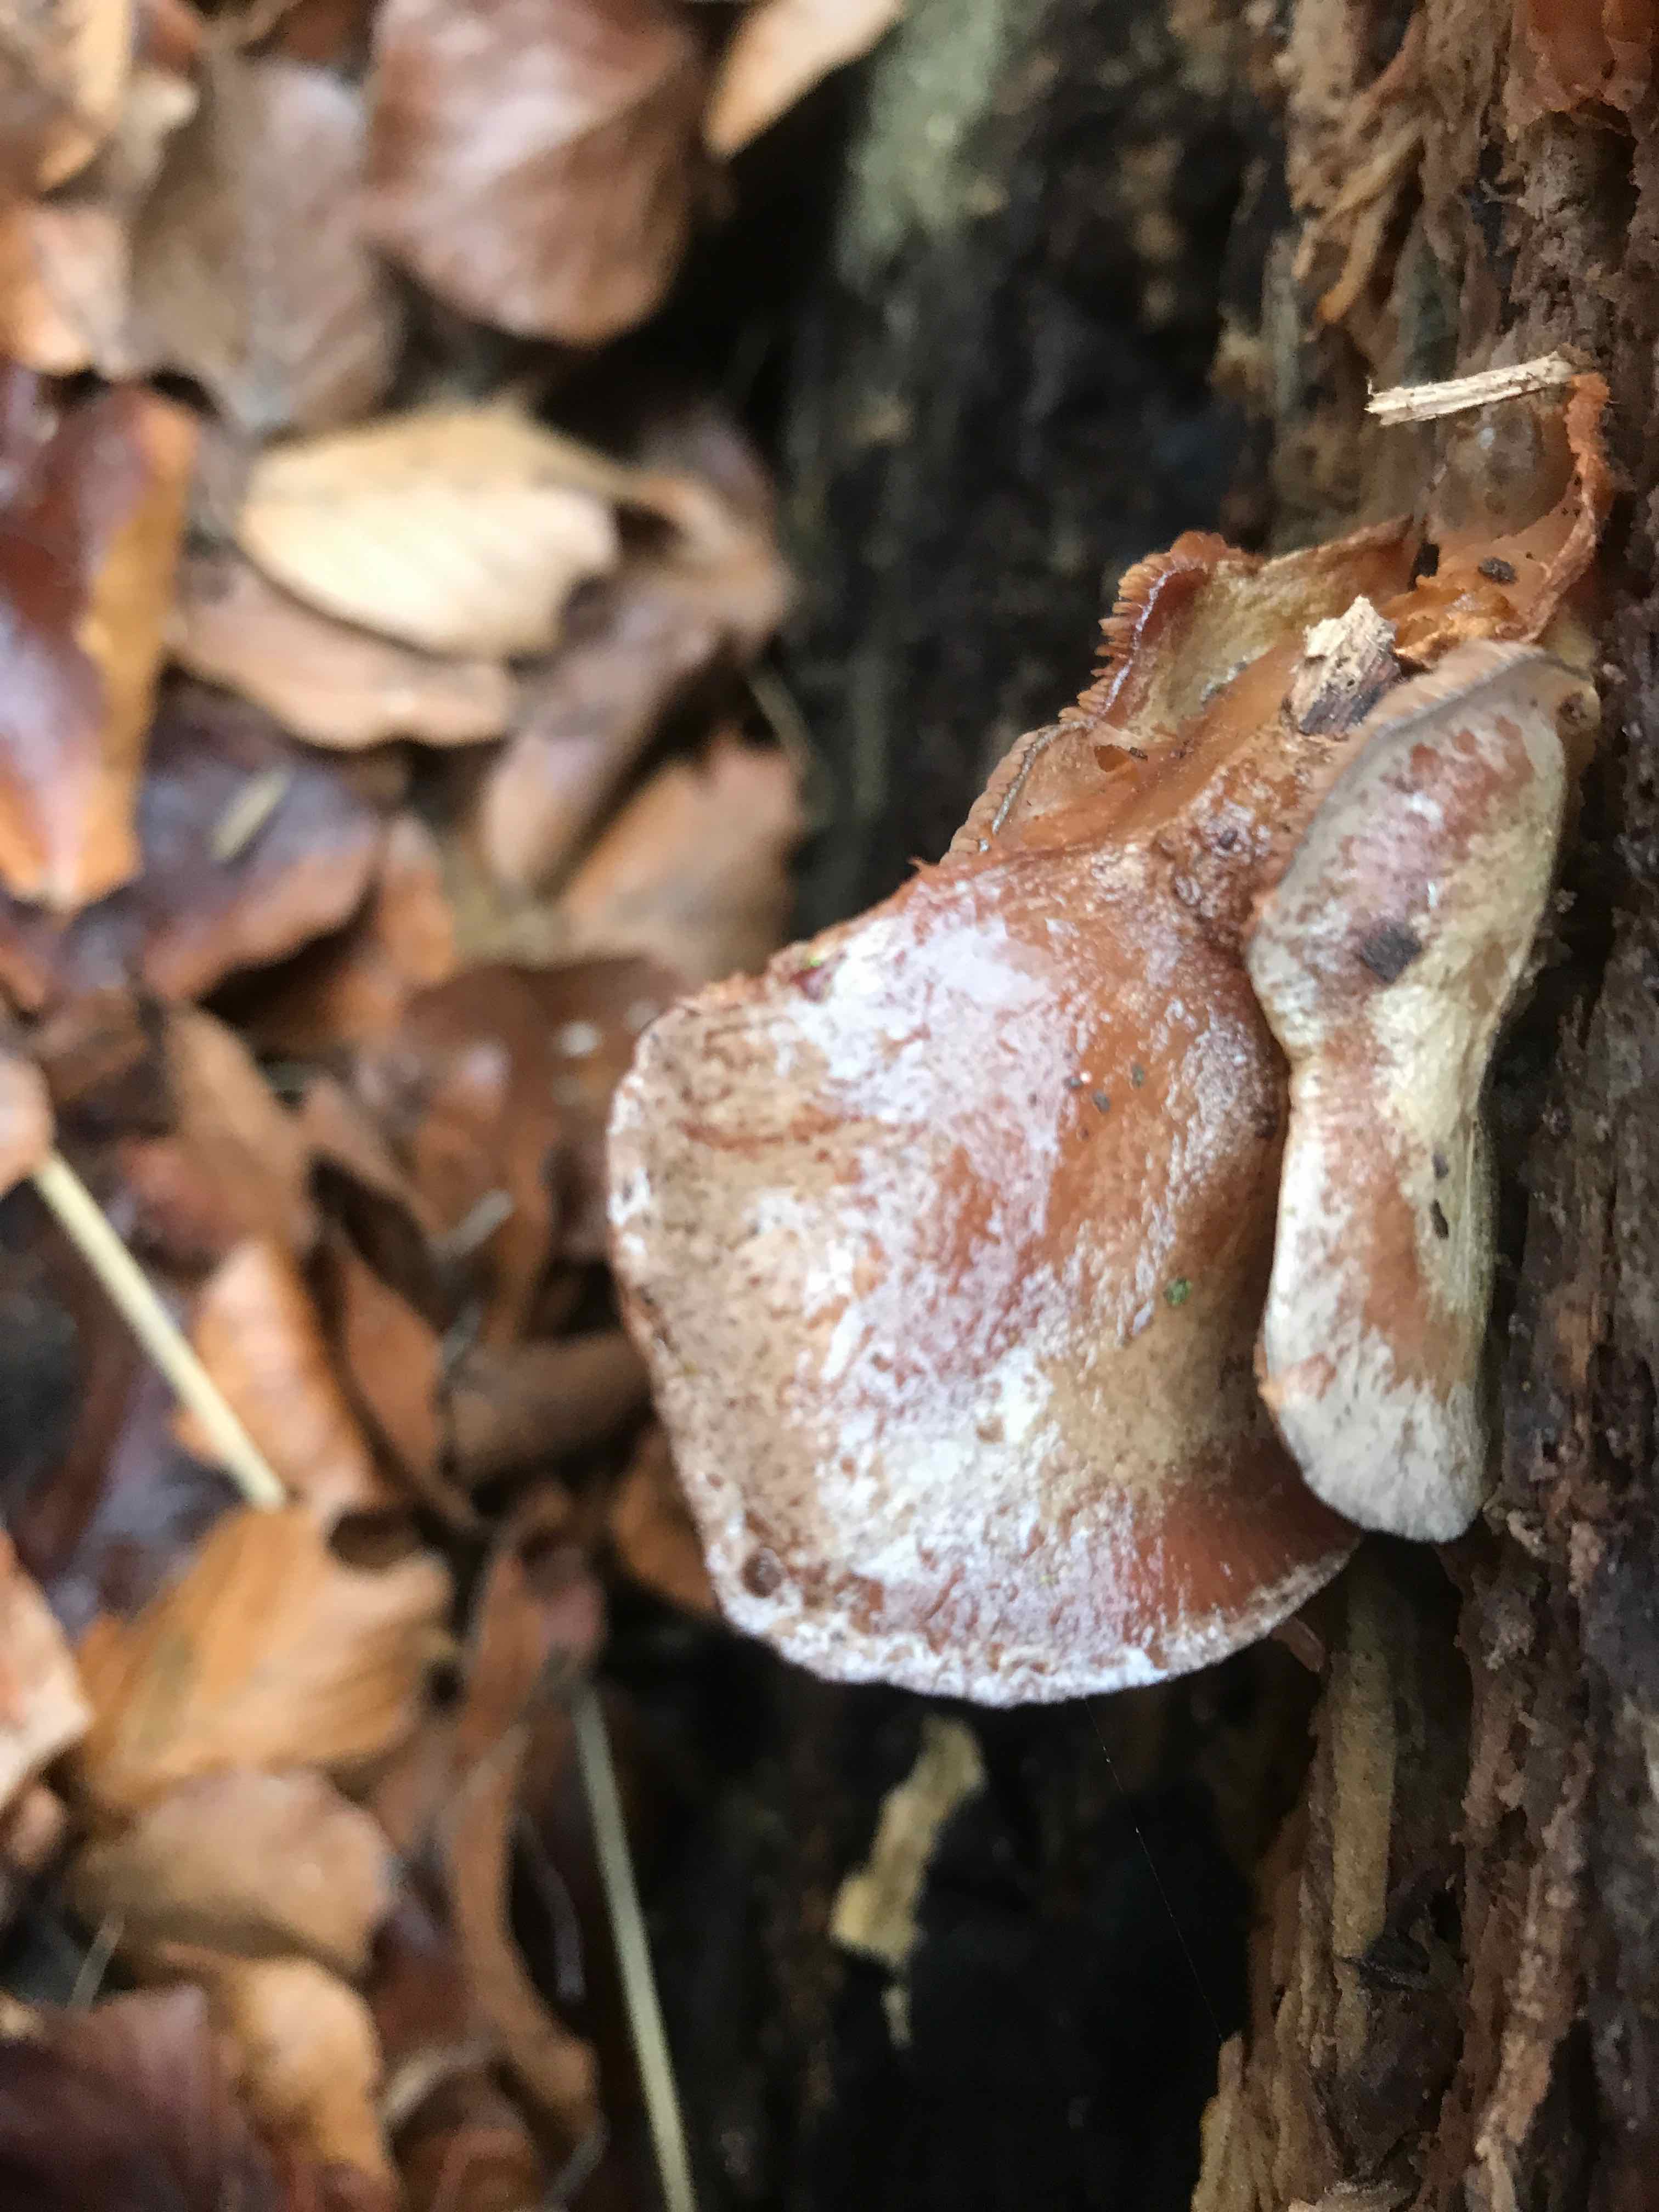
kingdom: Fungi
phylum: Basidiomycota
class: Agaricomycetes
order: Agaricales
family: Mycenaceae
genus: Panellus
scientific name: Panellus stipticus
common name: kliddet epaulethat
